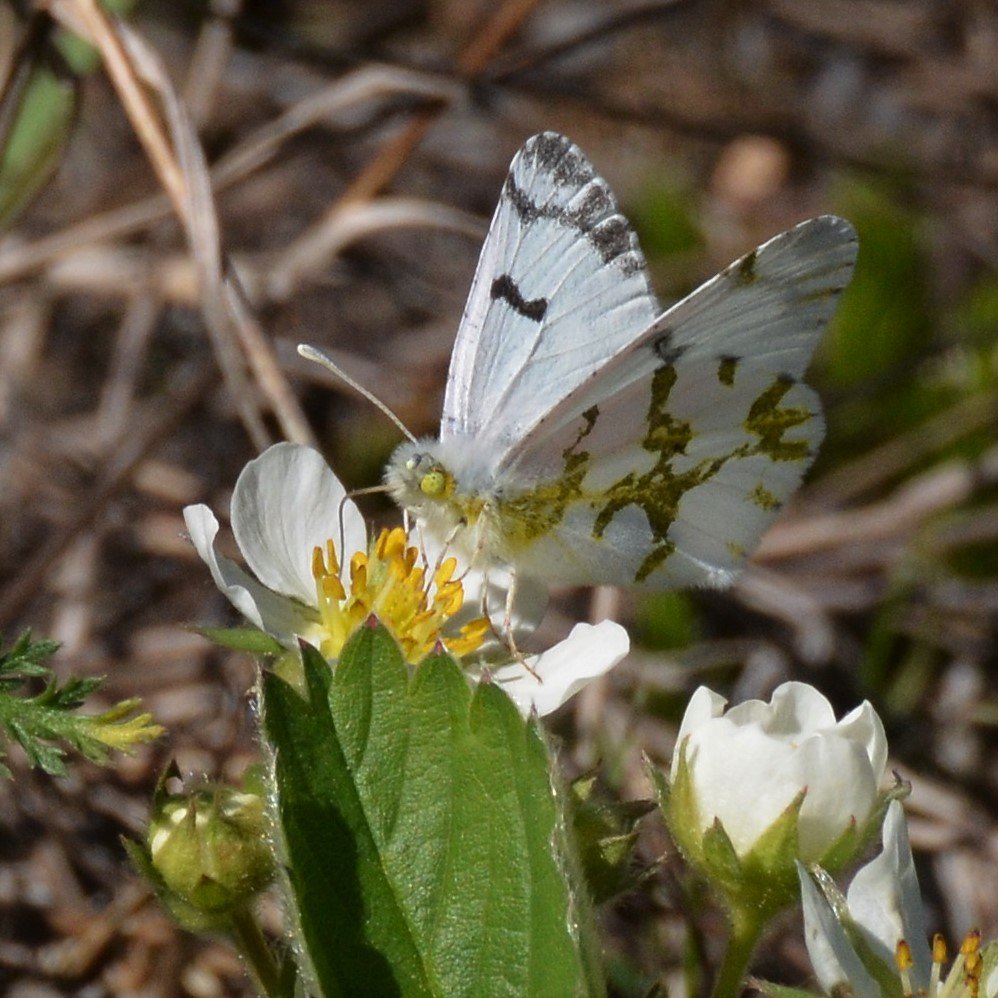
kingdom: Animalia
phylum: Arthropoda
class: Insecta
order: Lepidoptera
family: Pieridae
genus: Euchloe
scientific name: Euchloe olympia
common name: Olympia Marble
